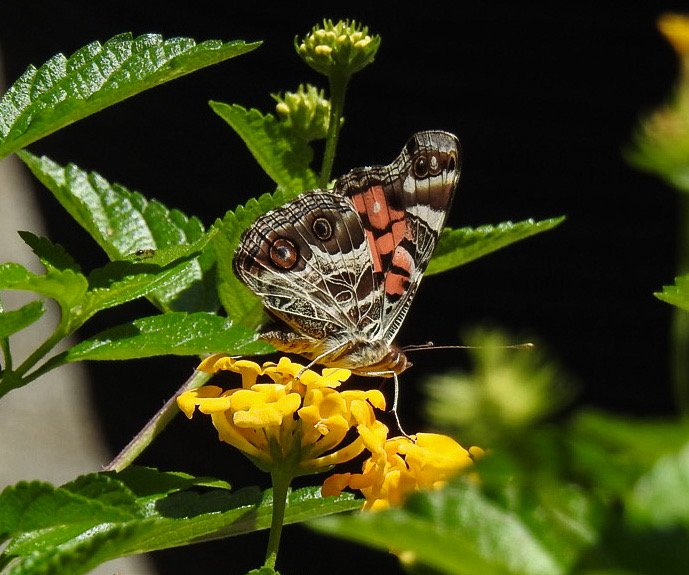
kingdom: Animalia
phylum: Arthropoda
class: Insecta
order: Lepidoptera
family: Nymphalidae
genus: Vanessa
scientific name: Vanessa virginiensis
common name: American Lady
